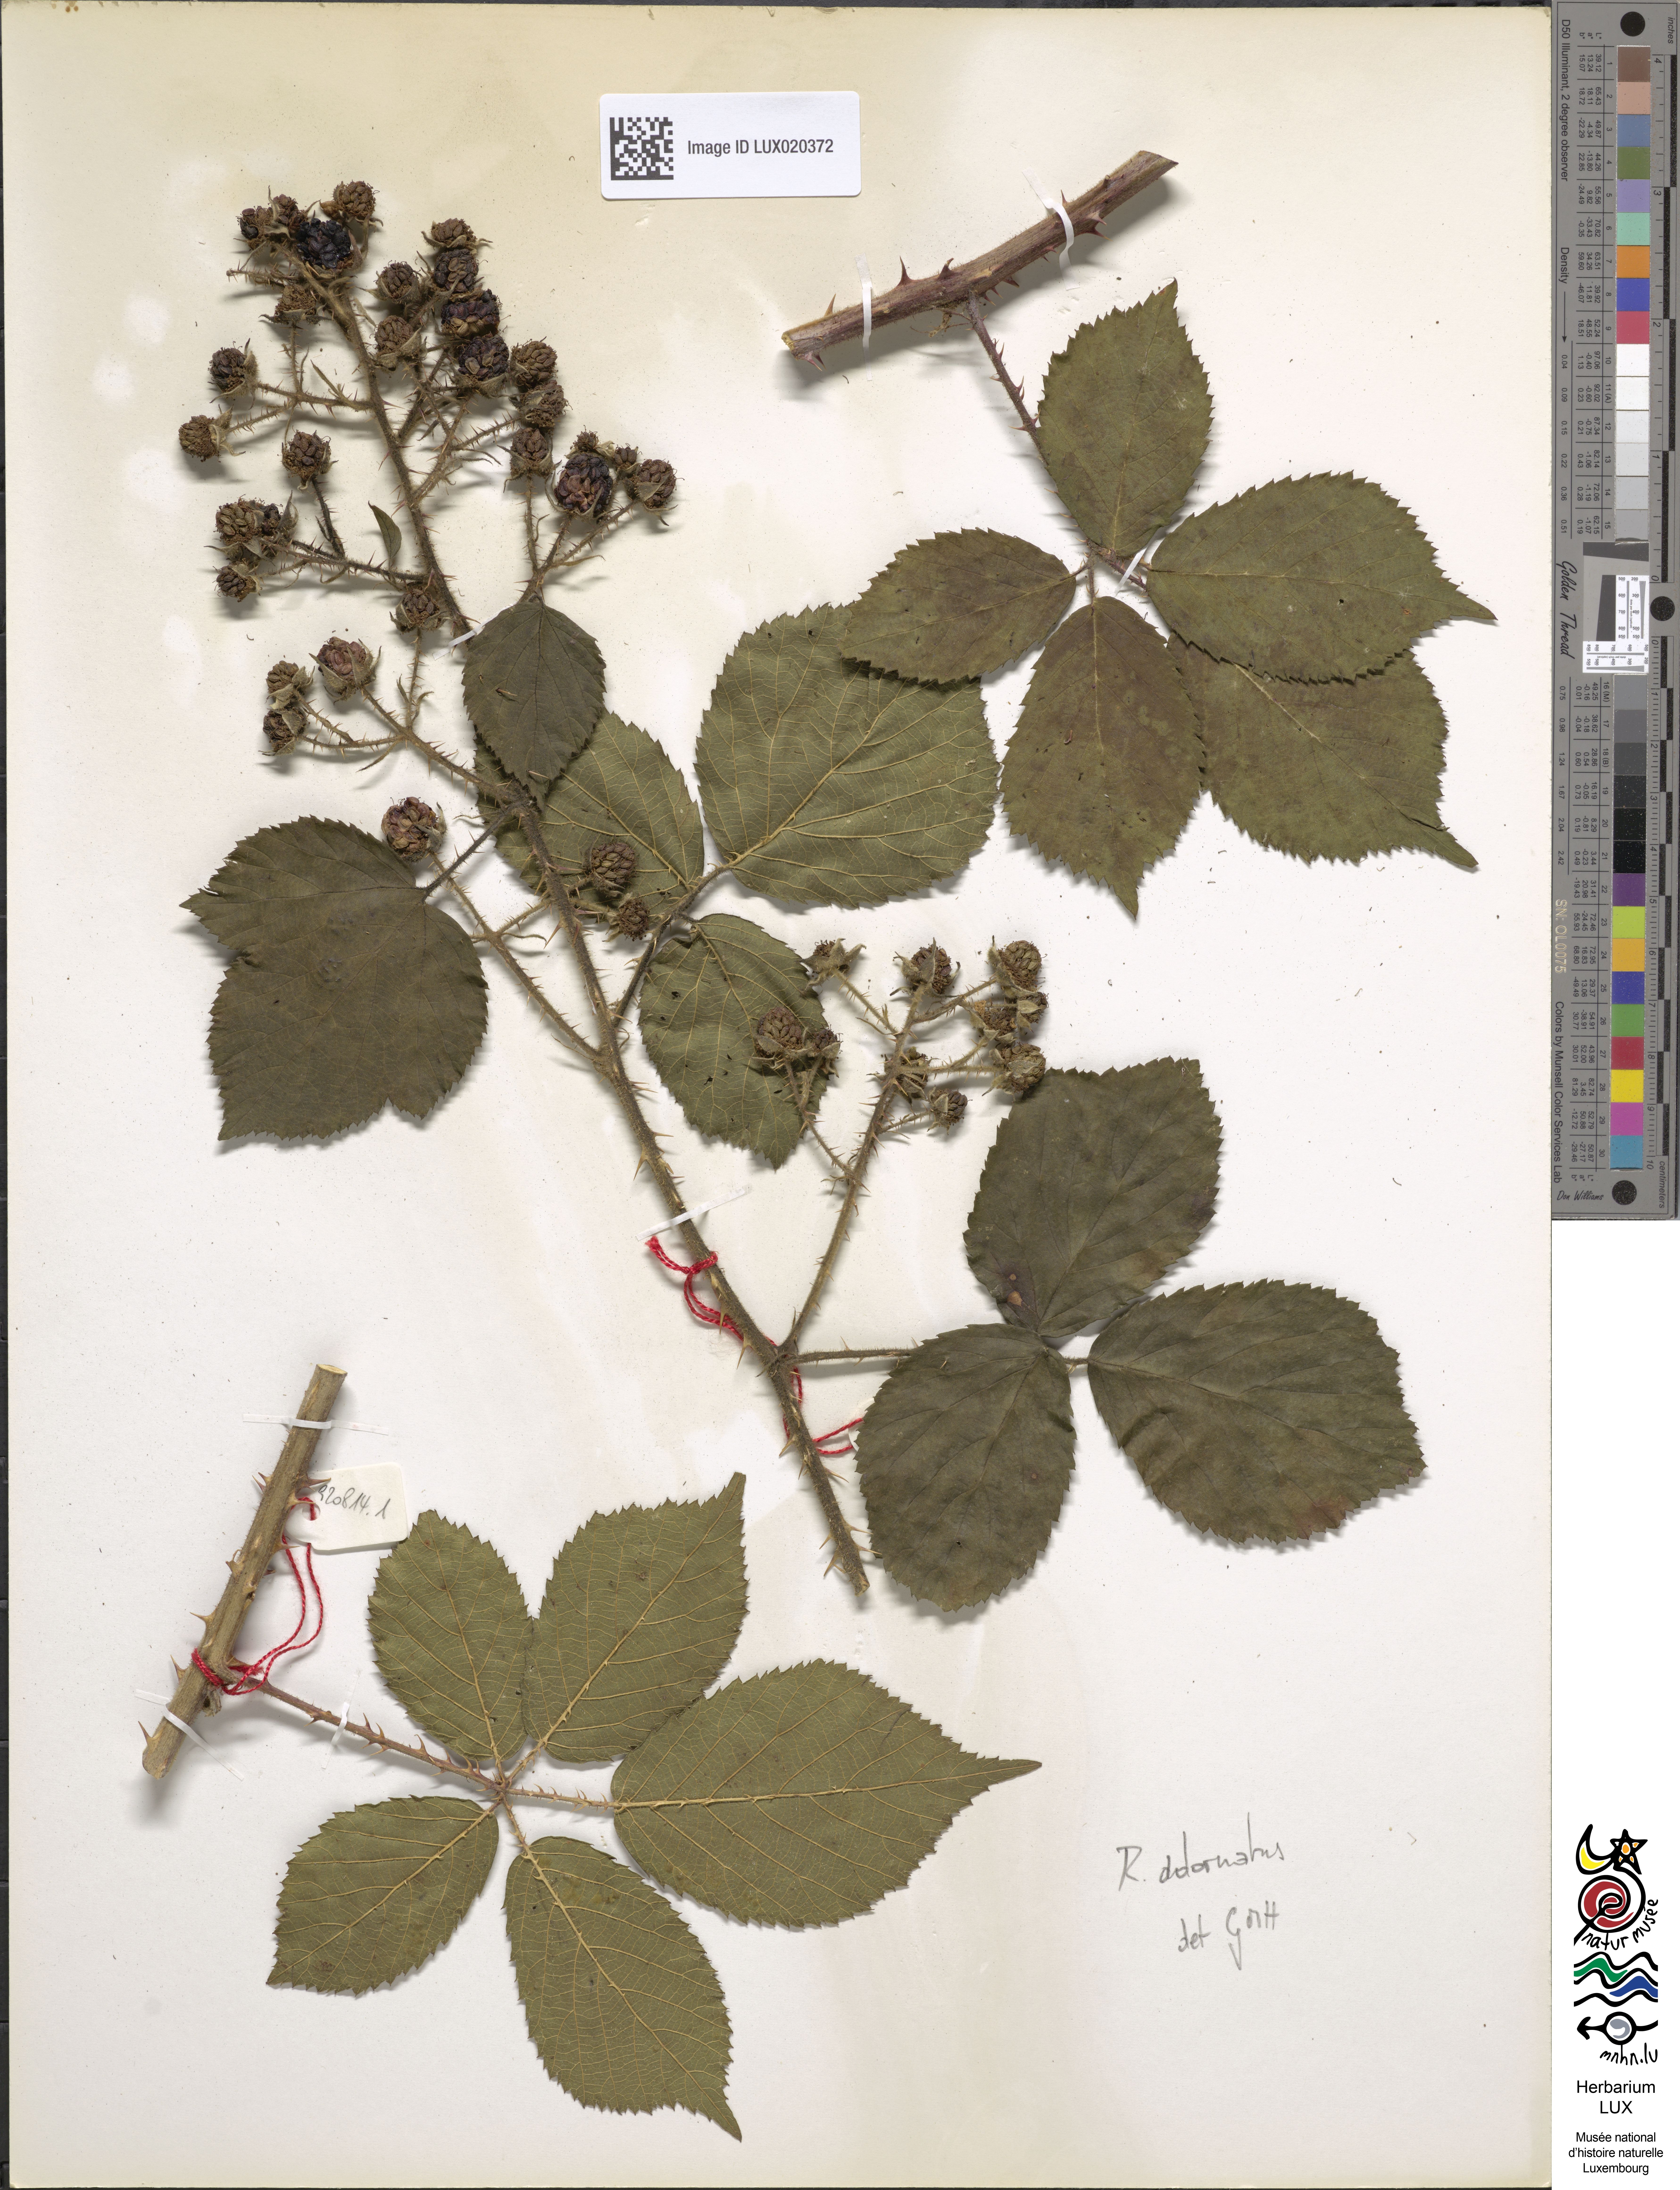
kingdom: Plantae
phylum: Tracheophyta
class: Magnoliopsida
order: Rosales
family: Rosaceae
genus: Rubus
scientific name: Rubus
